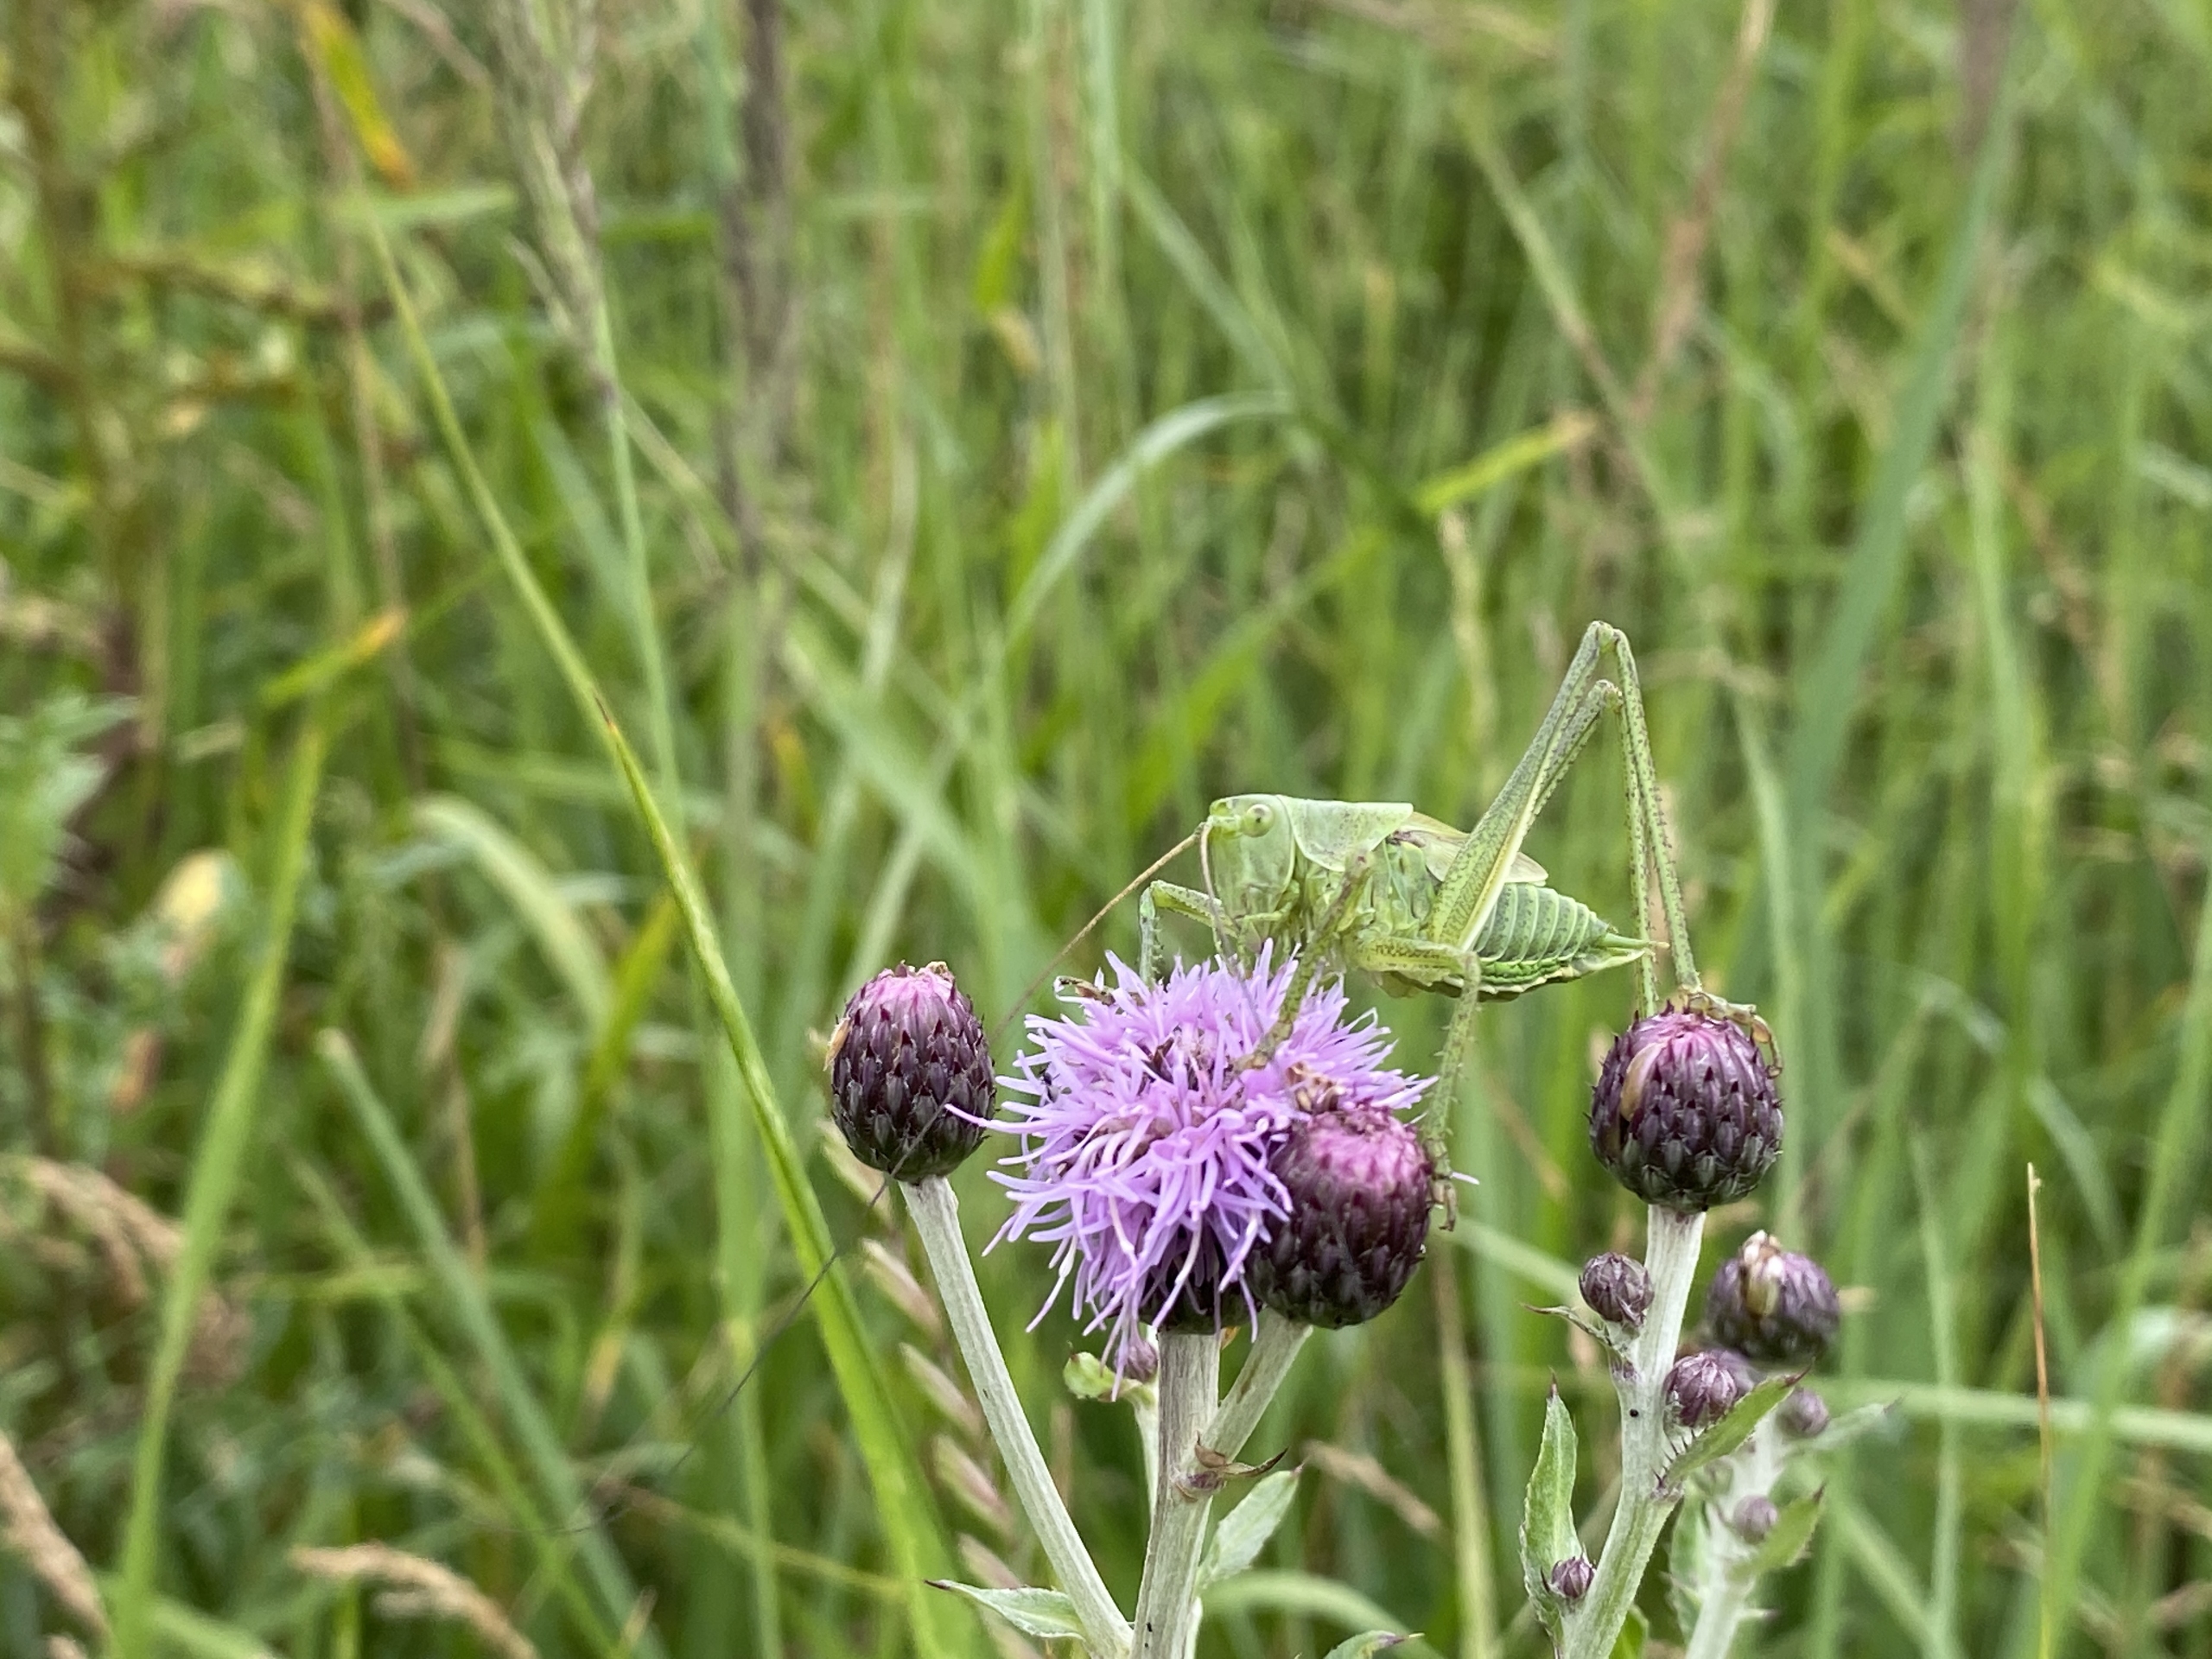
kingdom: Animalia
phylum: Arthropoda
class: Insecta
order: Orthoptera
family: Tettigoniidae
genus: Tettigonia
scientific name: Tettigonia viridissima
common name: Stor grøn løvgræshoppe
